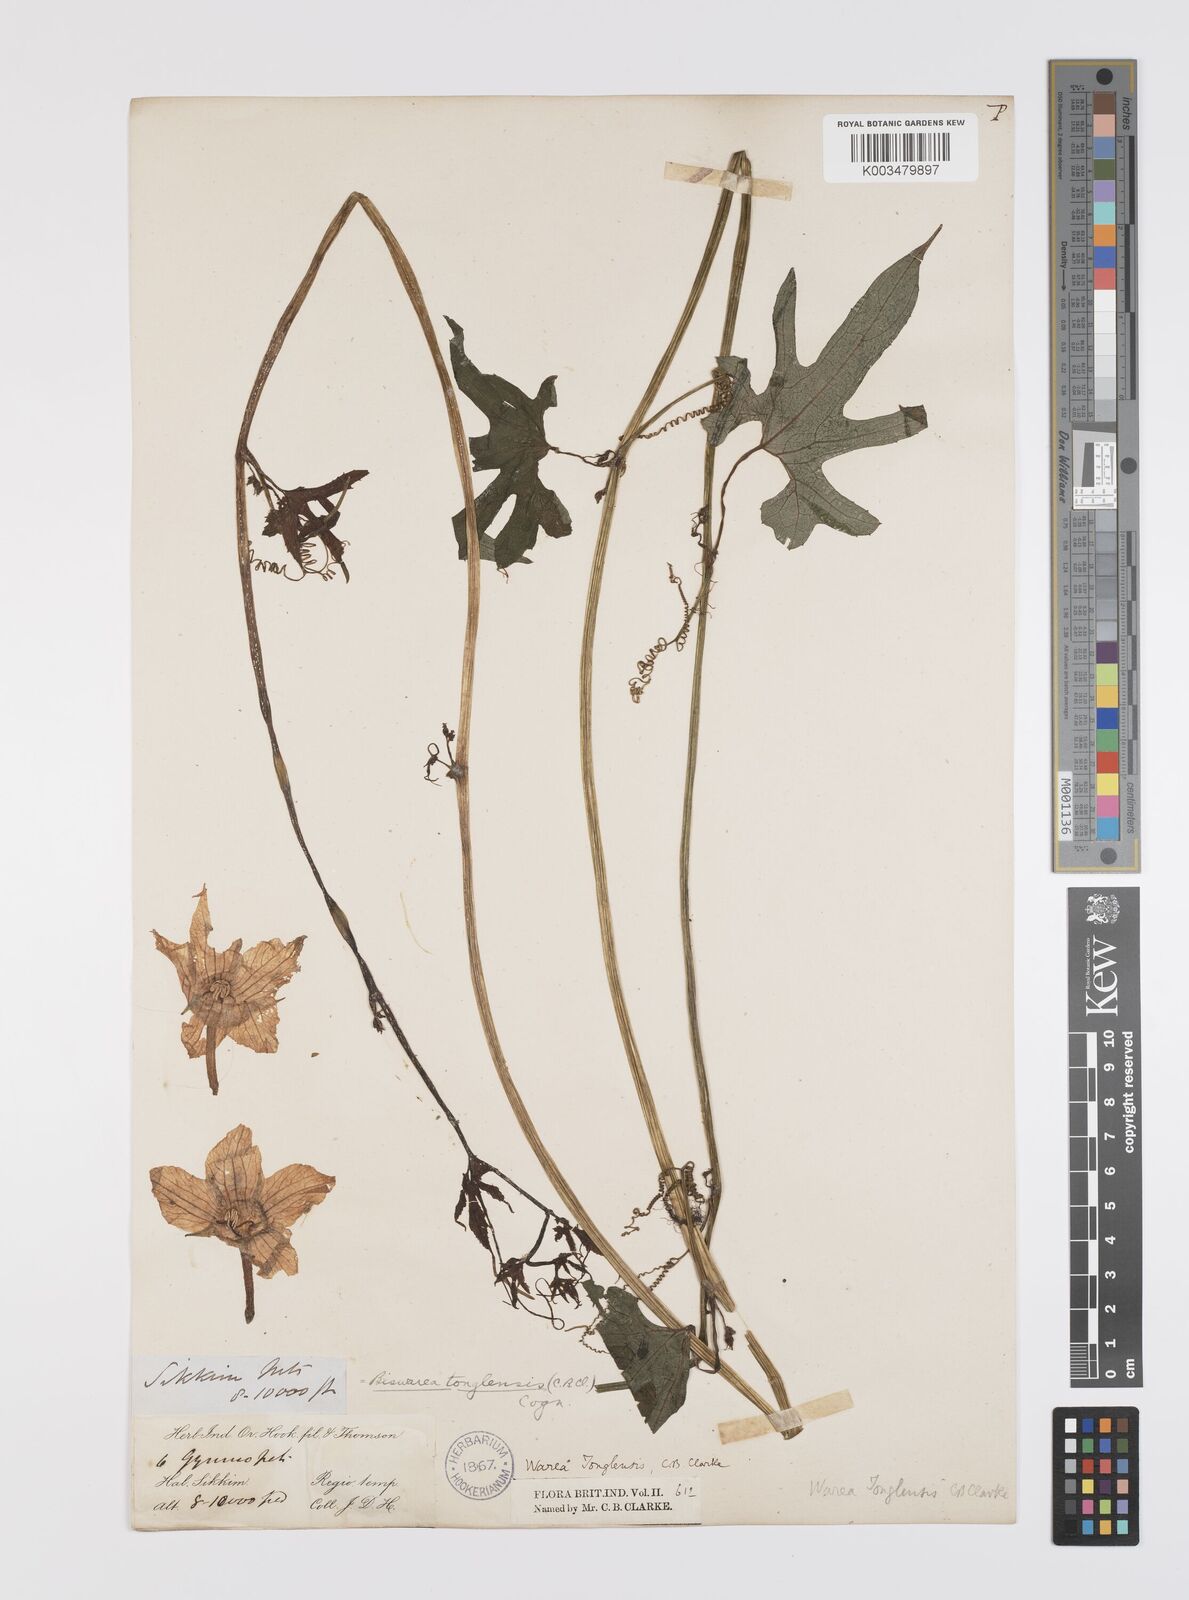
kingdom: Plantae
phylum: Tracheophyta
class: Magnoliopsida
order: Cucurbitales
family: Cucurbitaceae
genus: Benincasa
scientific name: Benincasa
